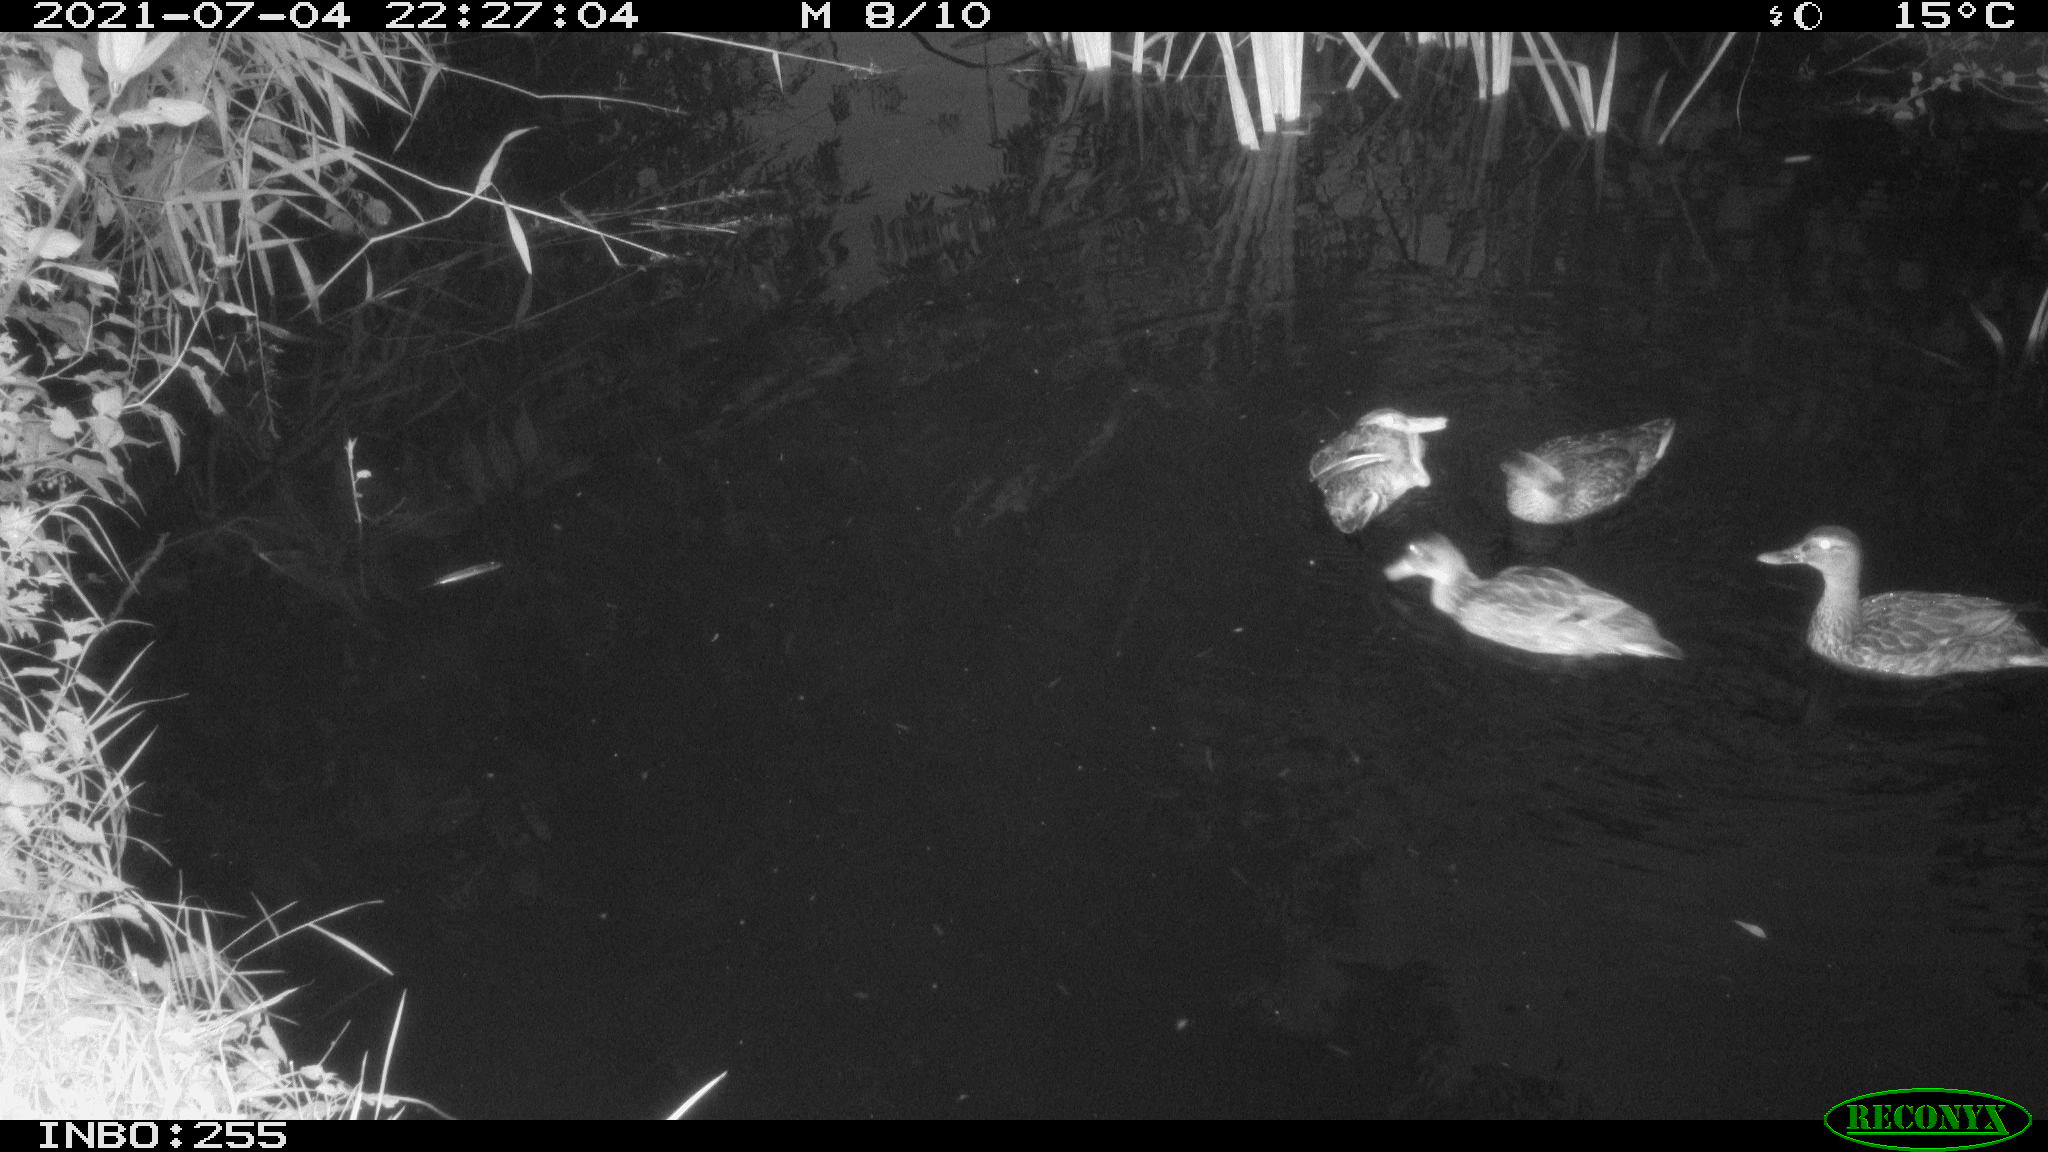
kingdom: Animalia
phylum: Chordata
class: Aves
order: Anseriformes
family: Anatidae
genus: Anas
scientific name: Anas platyrhynchos
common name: Mallard
